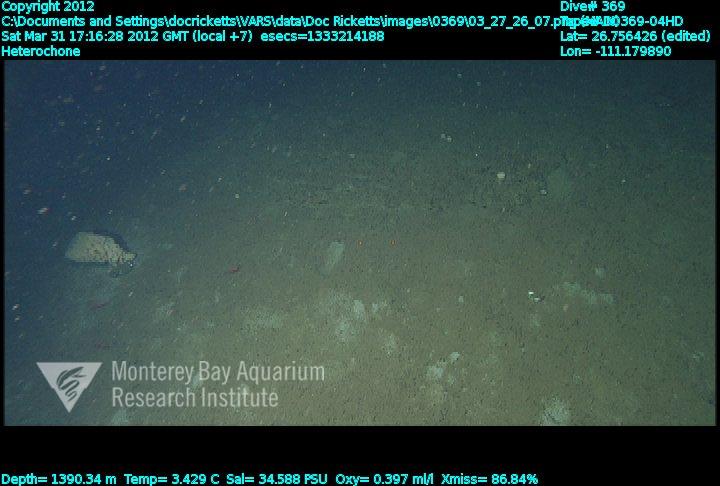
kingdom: Animalia
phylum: Porifera
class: Hexactinellida
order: Sceptrulophora
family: Aphrocallistidae
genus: Heterochone
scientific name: Heterochone
